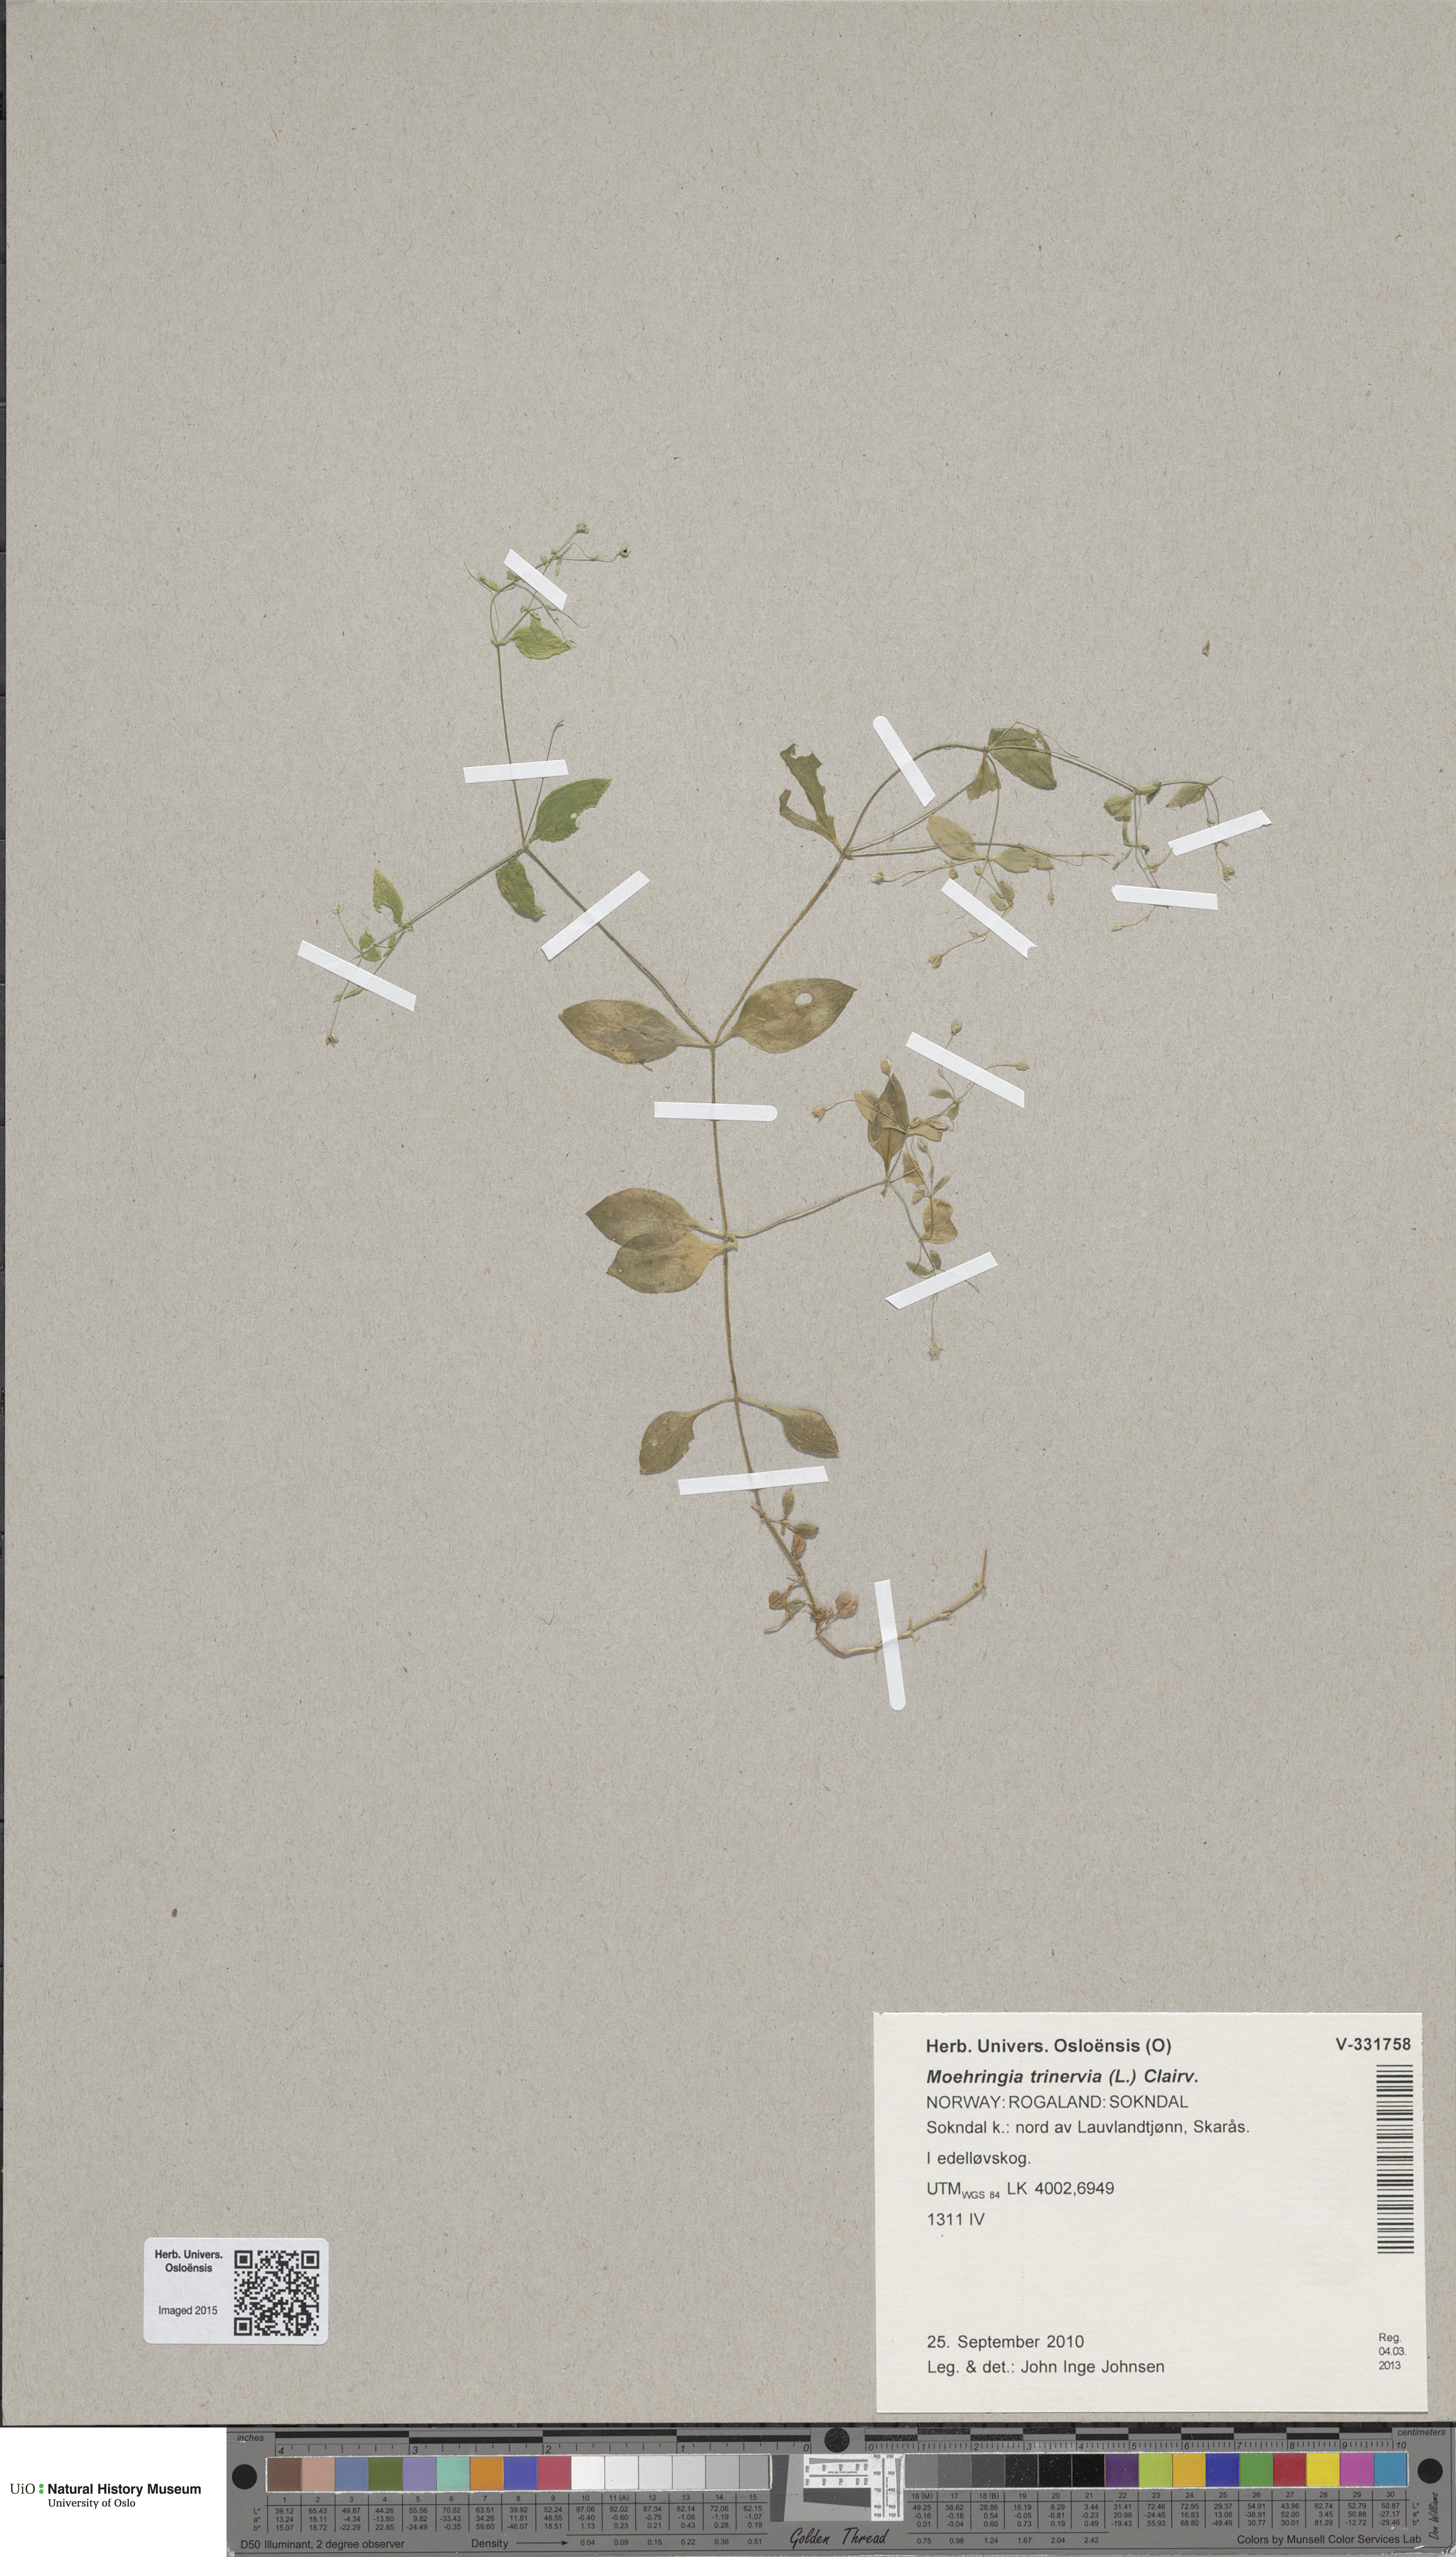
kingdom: Plantae
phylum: Tracheophyta
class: Magnoliopsida
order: Caryophyllales
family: Caryophyllaceae
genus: Moehringia
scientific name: Moehringia trinervia
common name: Three-nerved sandwort
